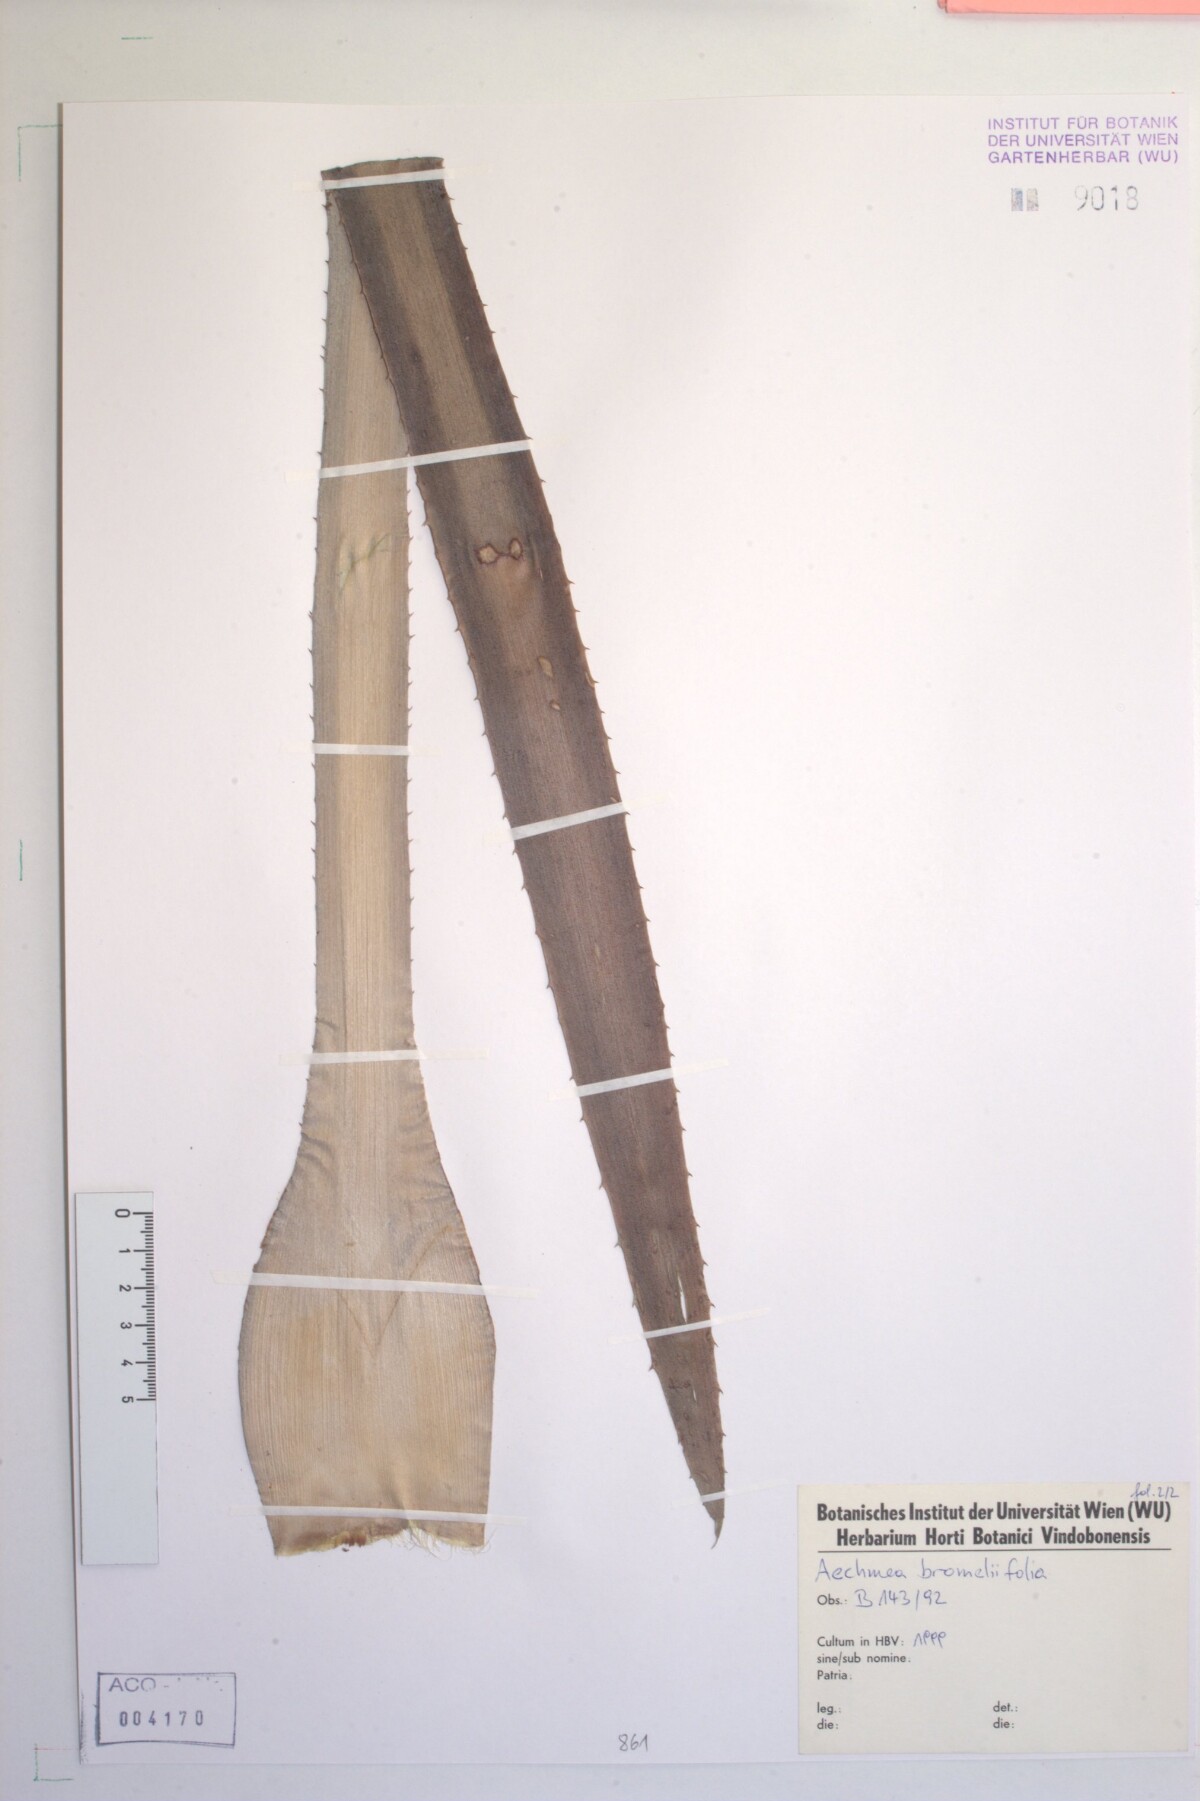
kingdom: Plantae
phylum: Tracheophyta
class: Liliopsida
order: Poales
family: Bromeliaceae
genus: Aechmea
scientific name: Aechmea bromeliifolia
